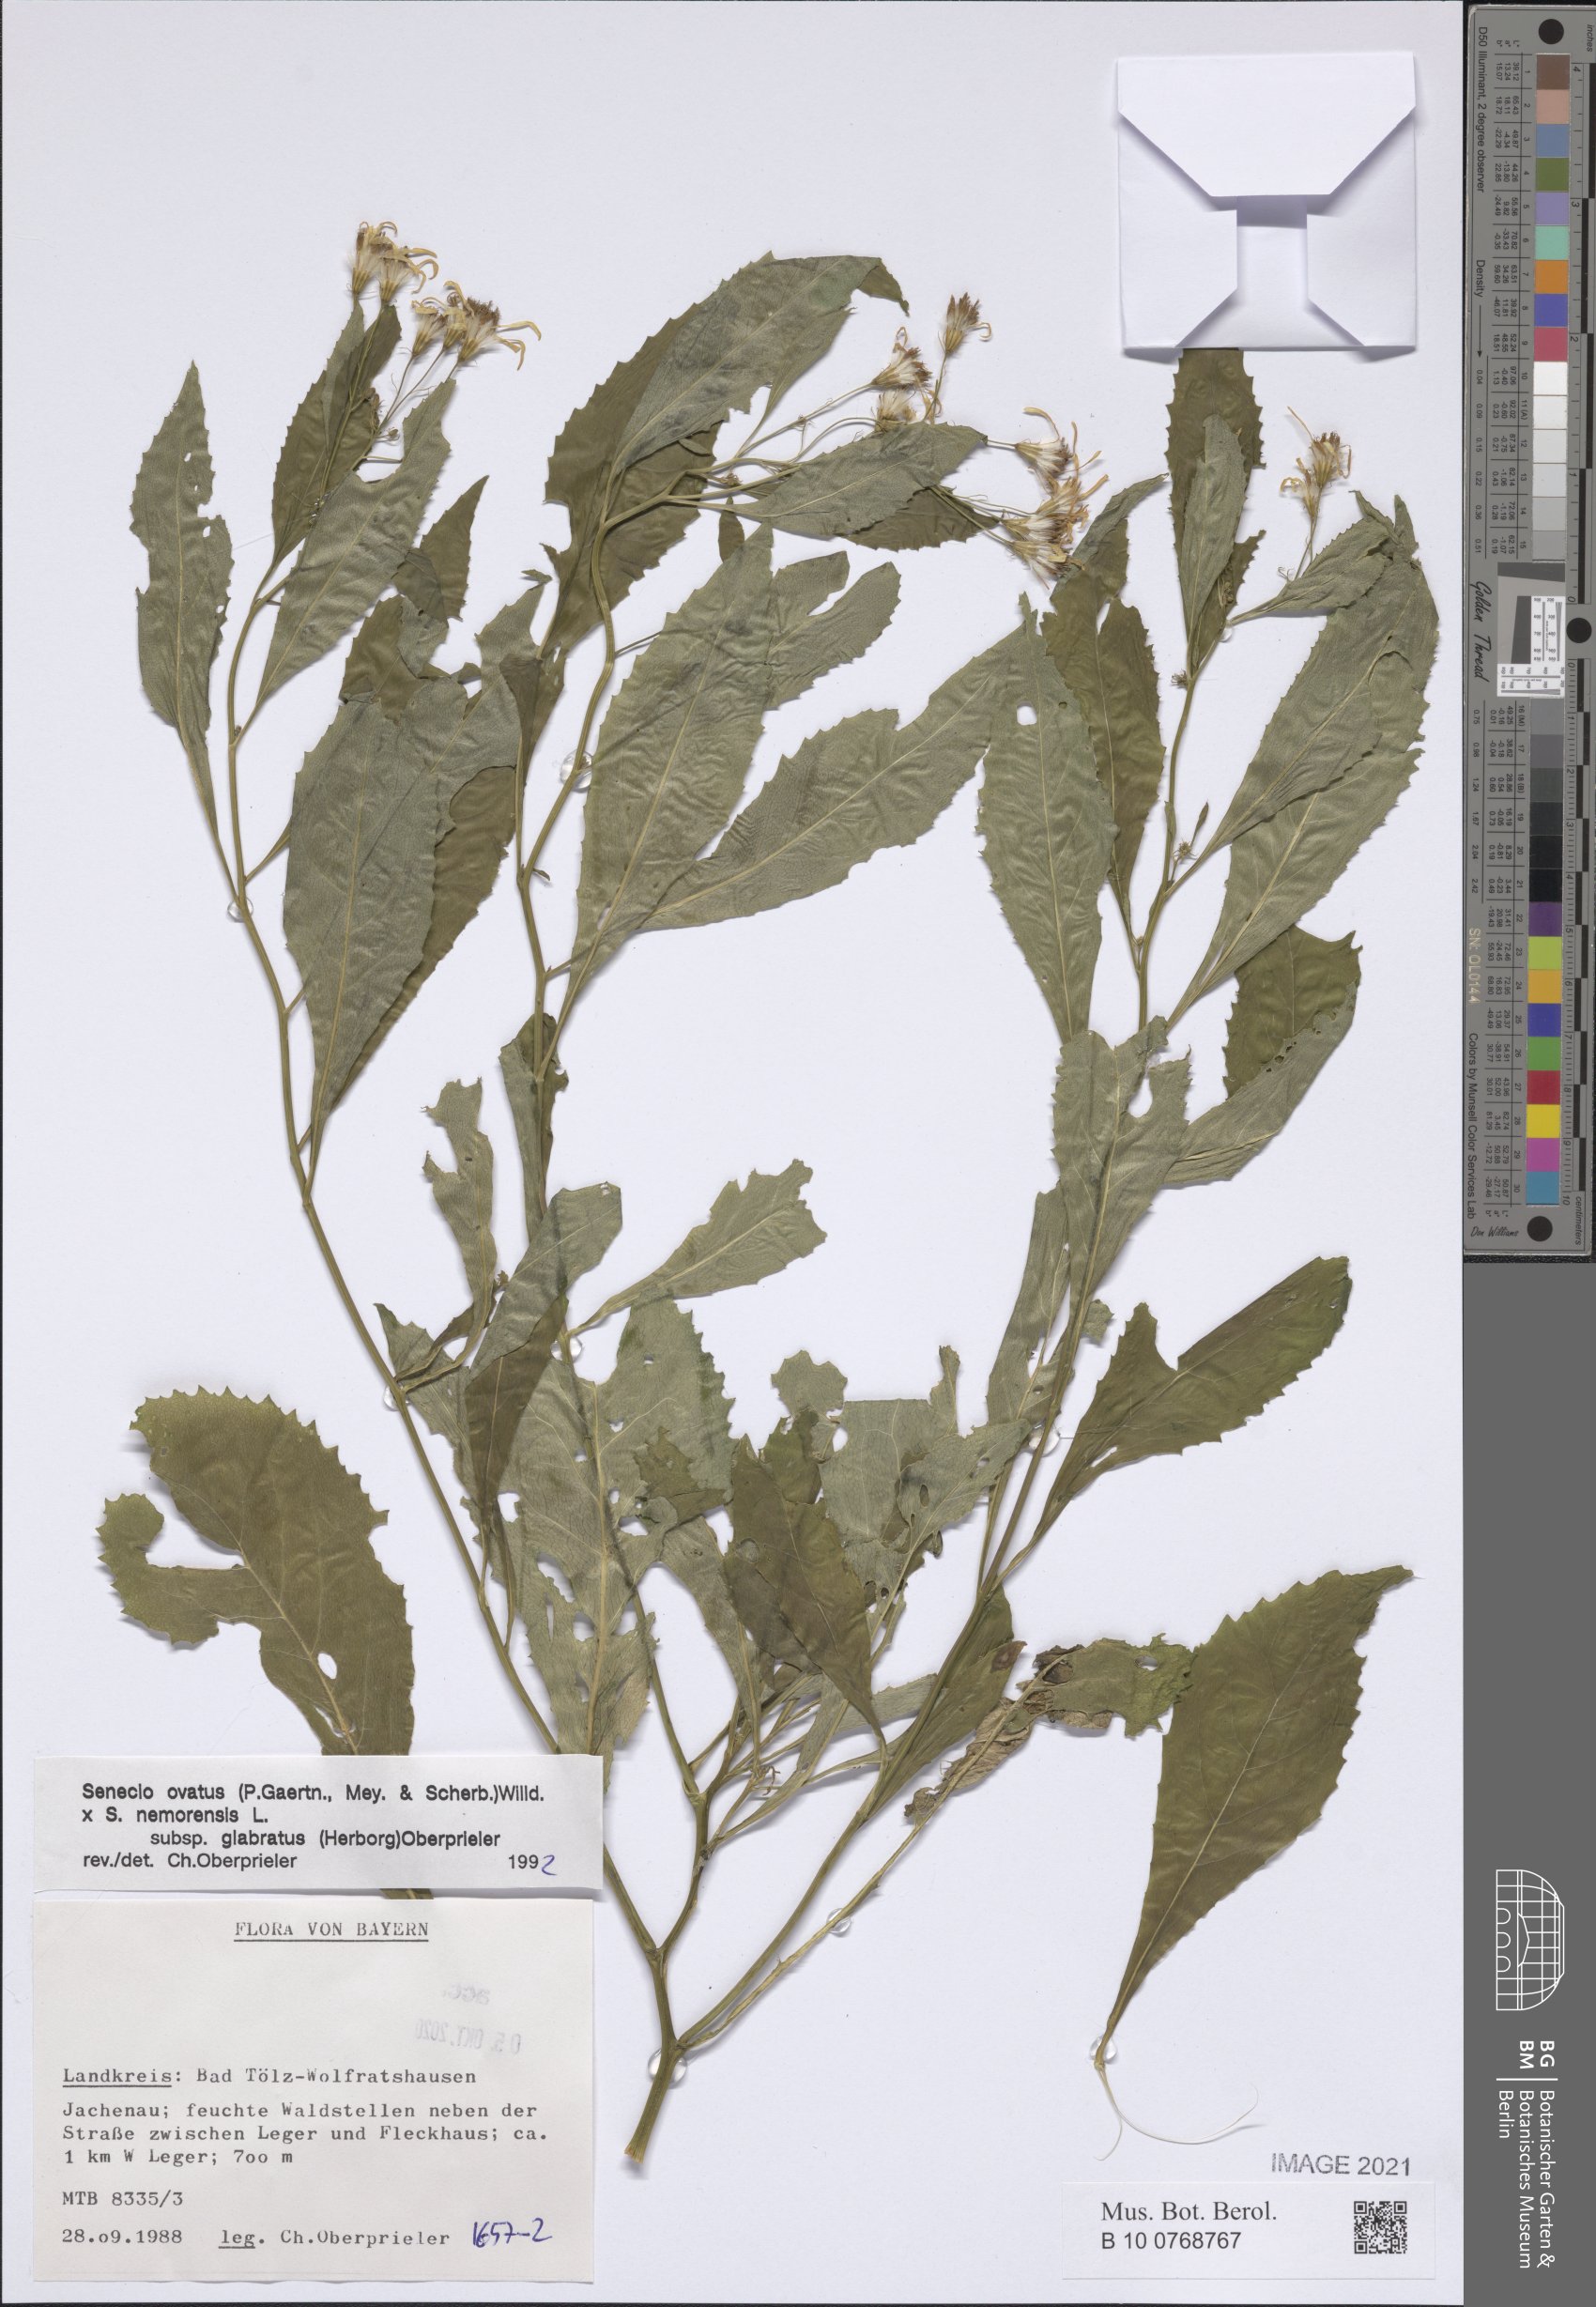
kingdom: Plantae
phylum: Tracheophyta
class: Magnoliopsida
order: Asterales
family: Asteraceae
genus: Senecio
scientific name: Senecio ovatus
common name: Wood ragwort
